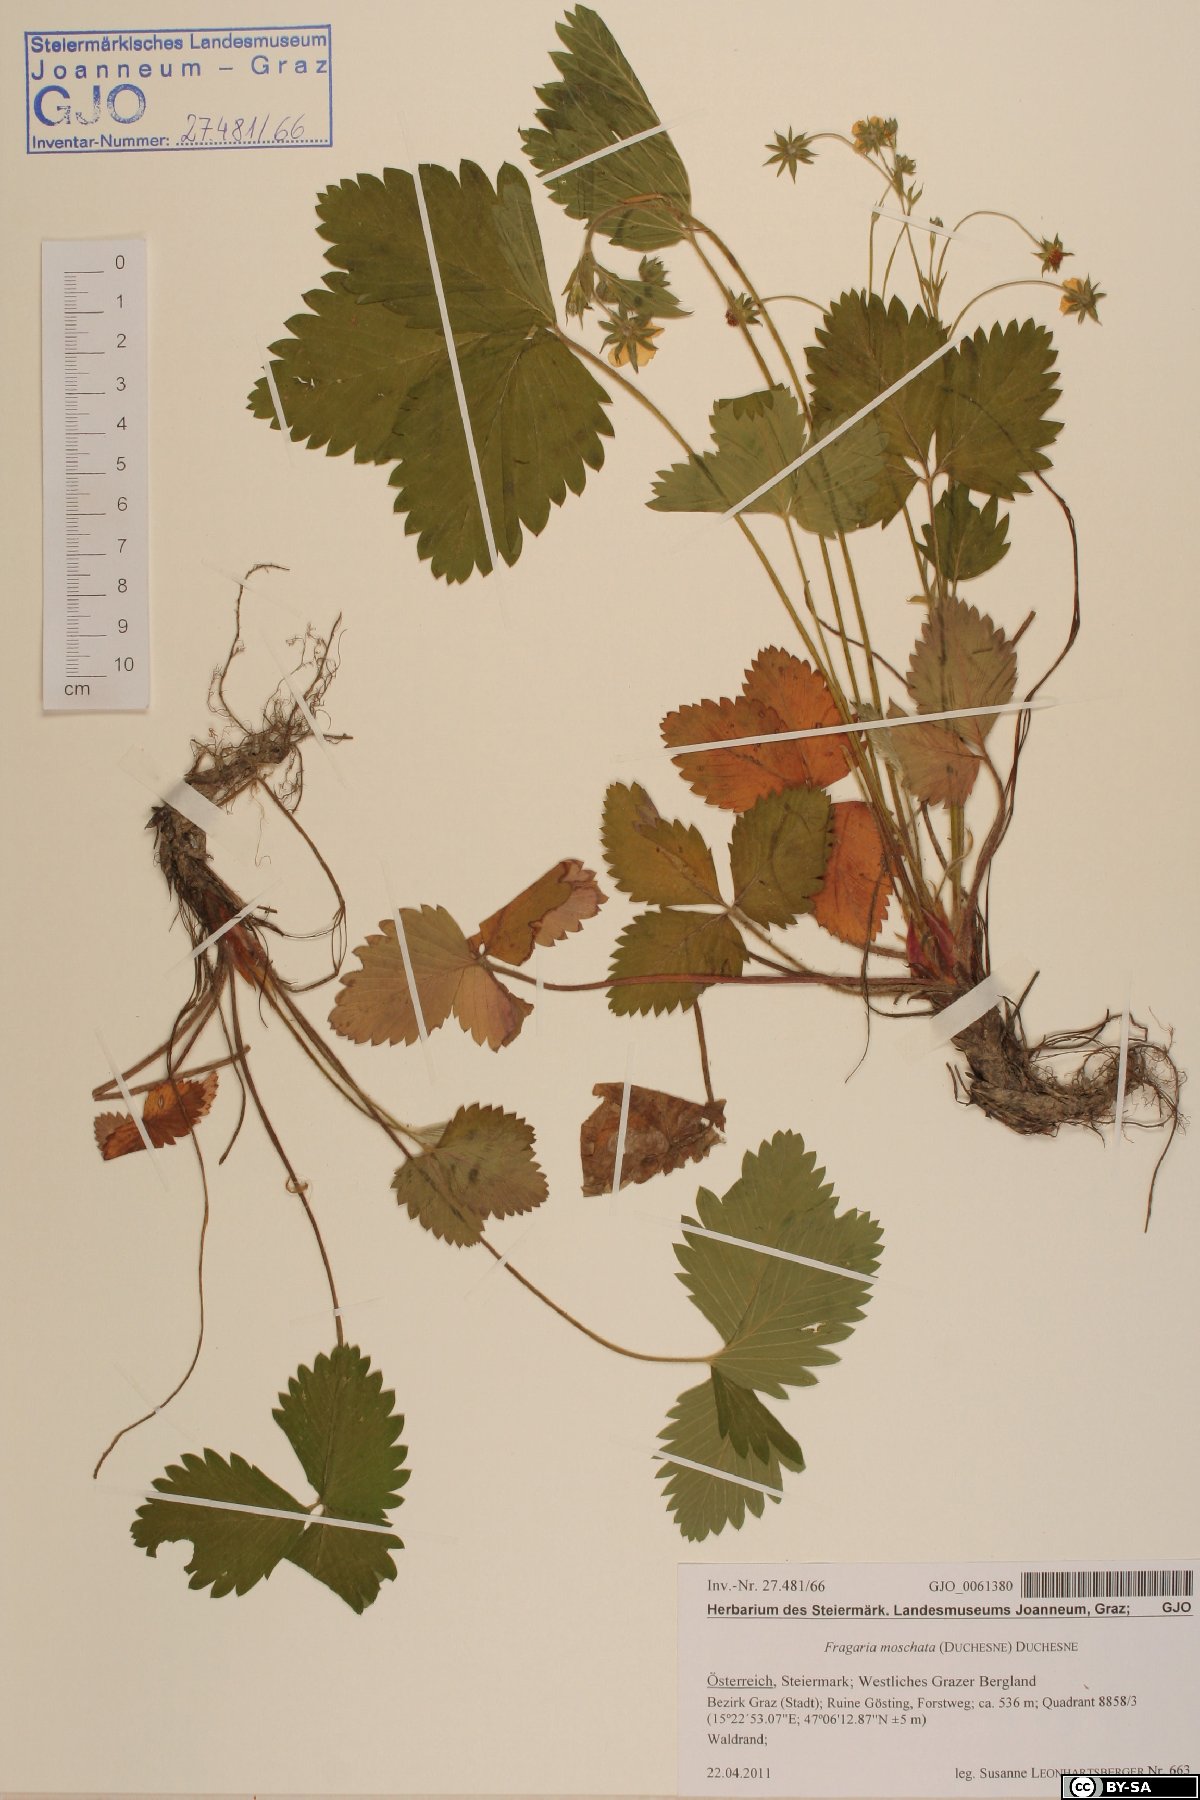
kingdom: Plantae
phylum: Tracheophyta
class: Magnoliopsida
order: Rosales
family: Rosaceae
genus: Fragaria
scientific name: Fragaria moschata
